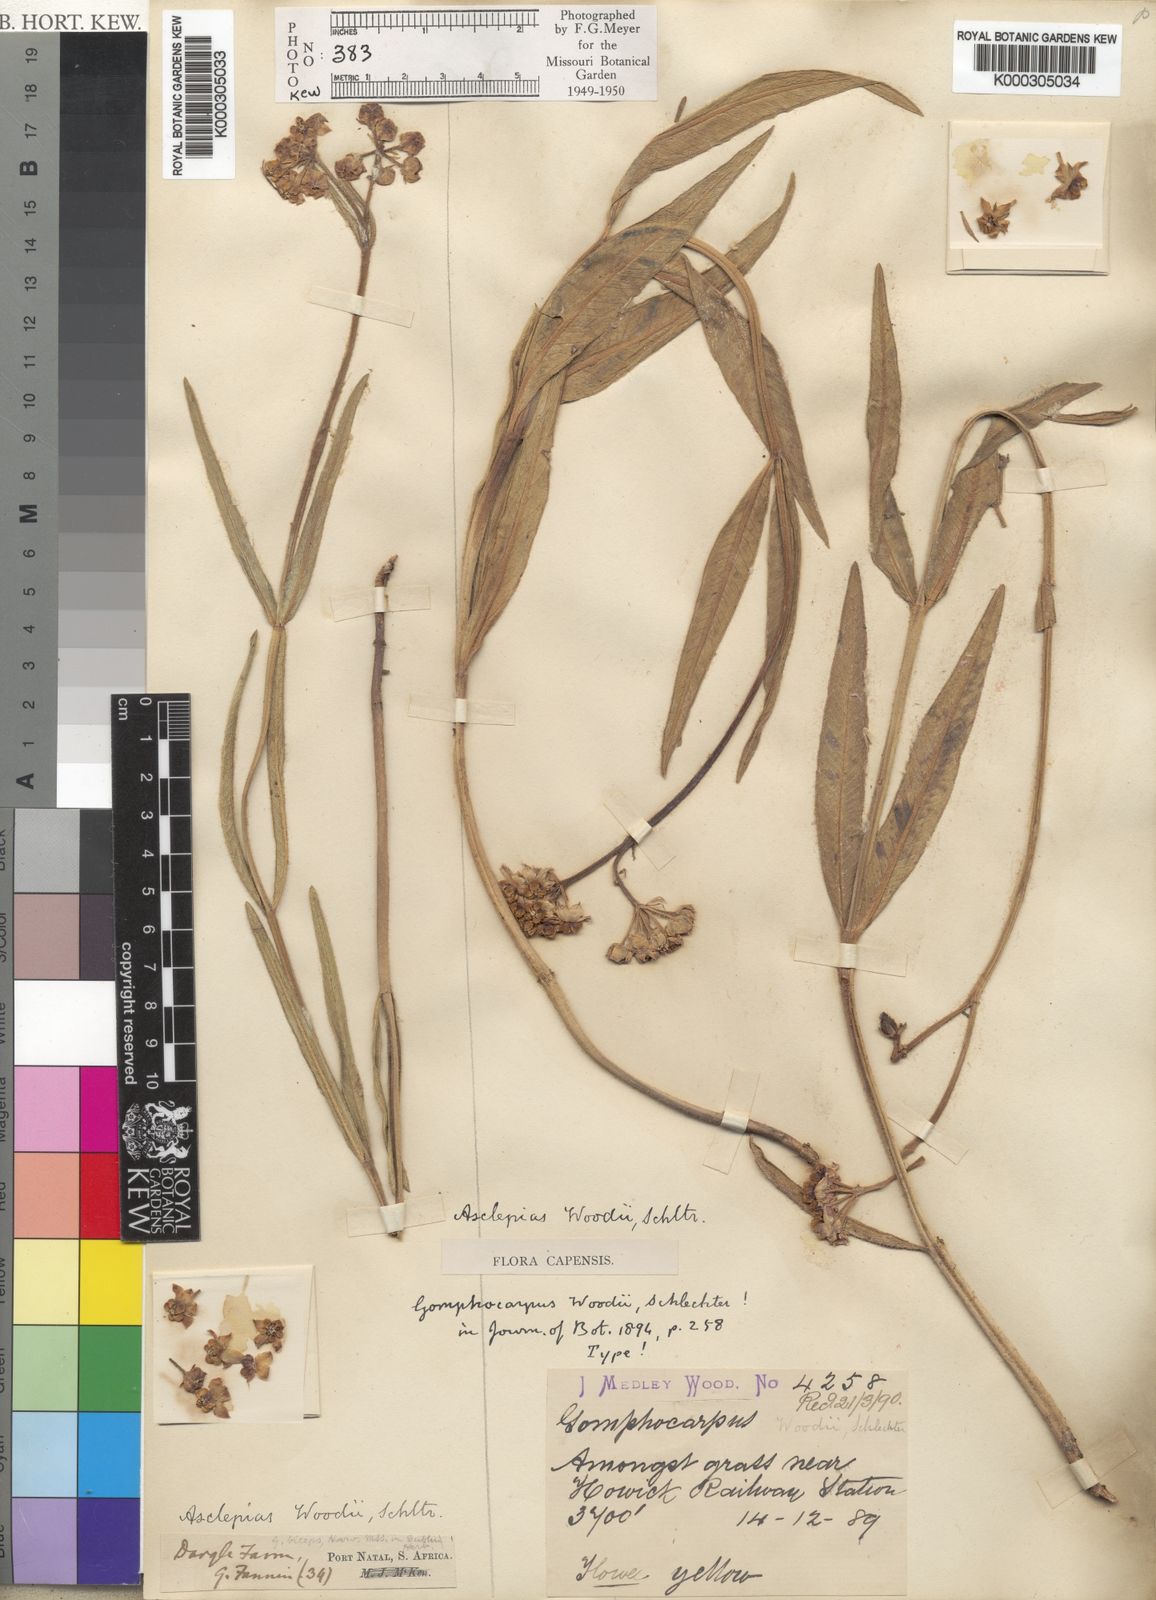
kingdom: Plantae
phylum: Tracheophyta
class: Magnoliopsida
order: Gentianales
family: Apocynaceae
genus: Asclepias
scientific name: Asclepias woodii
